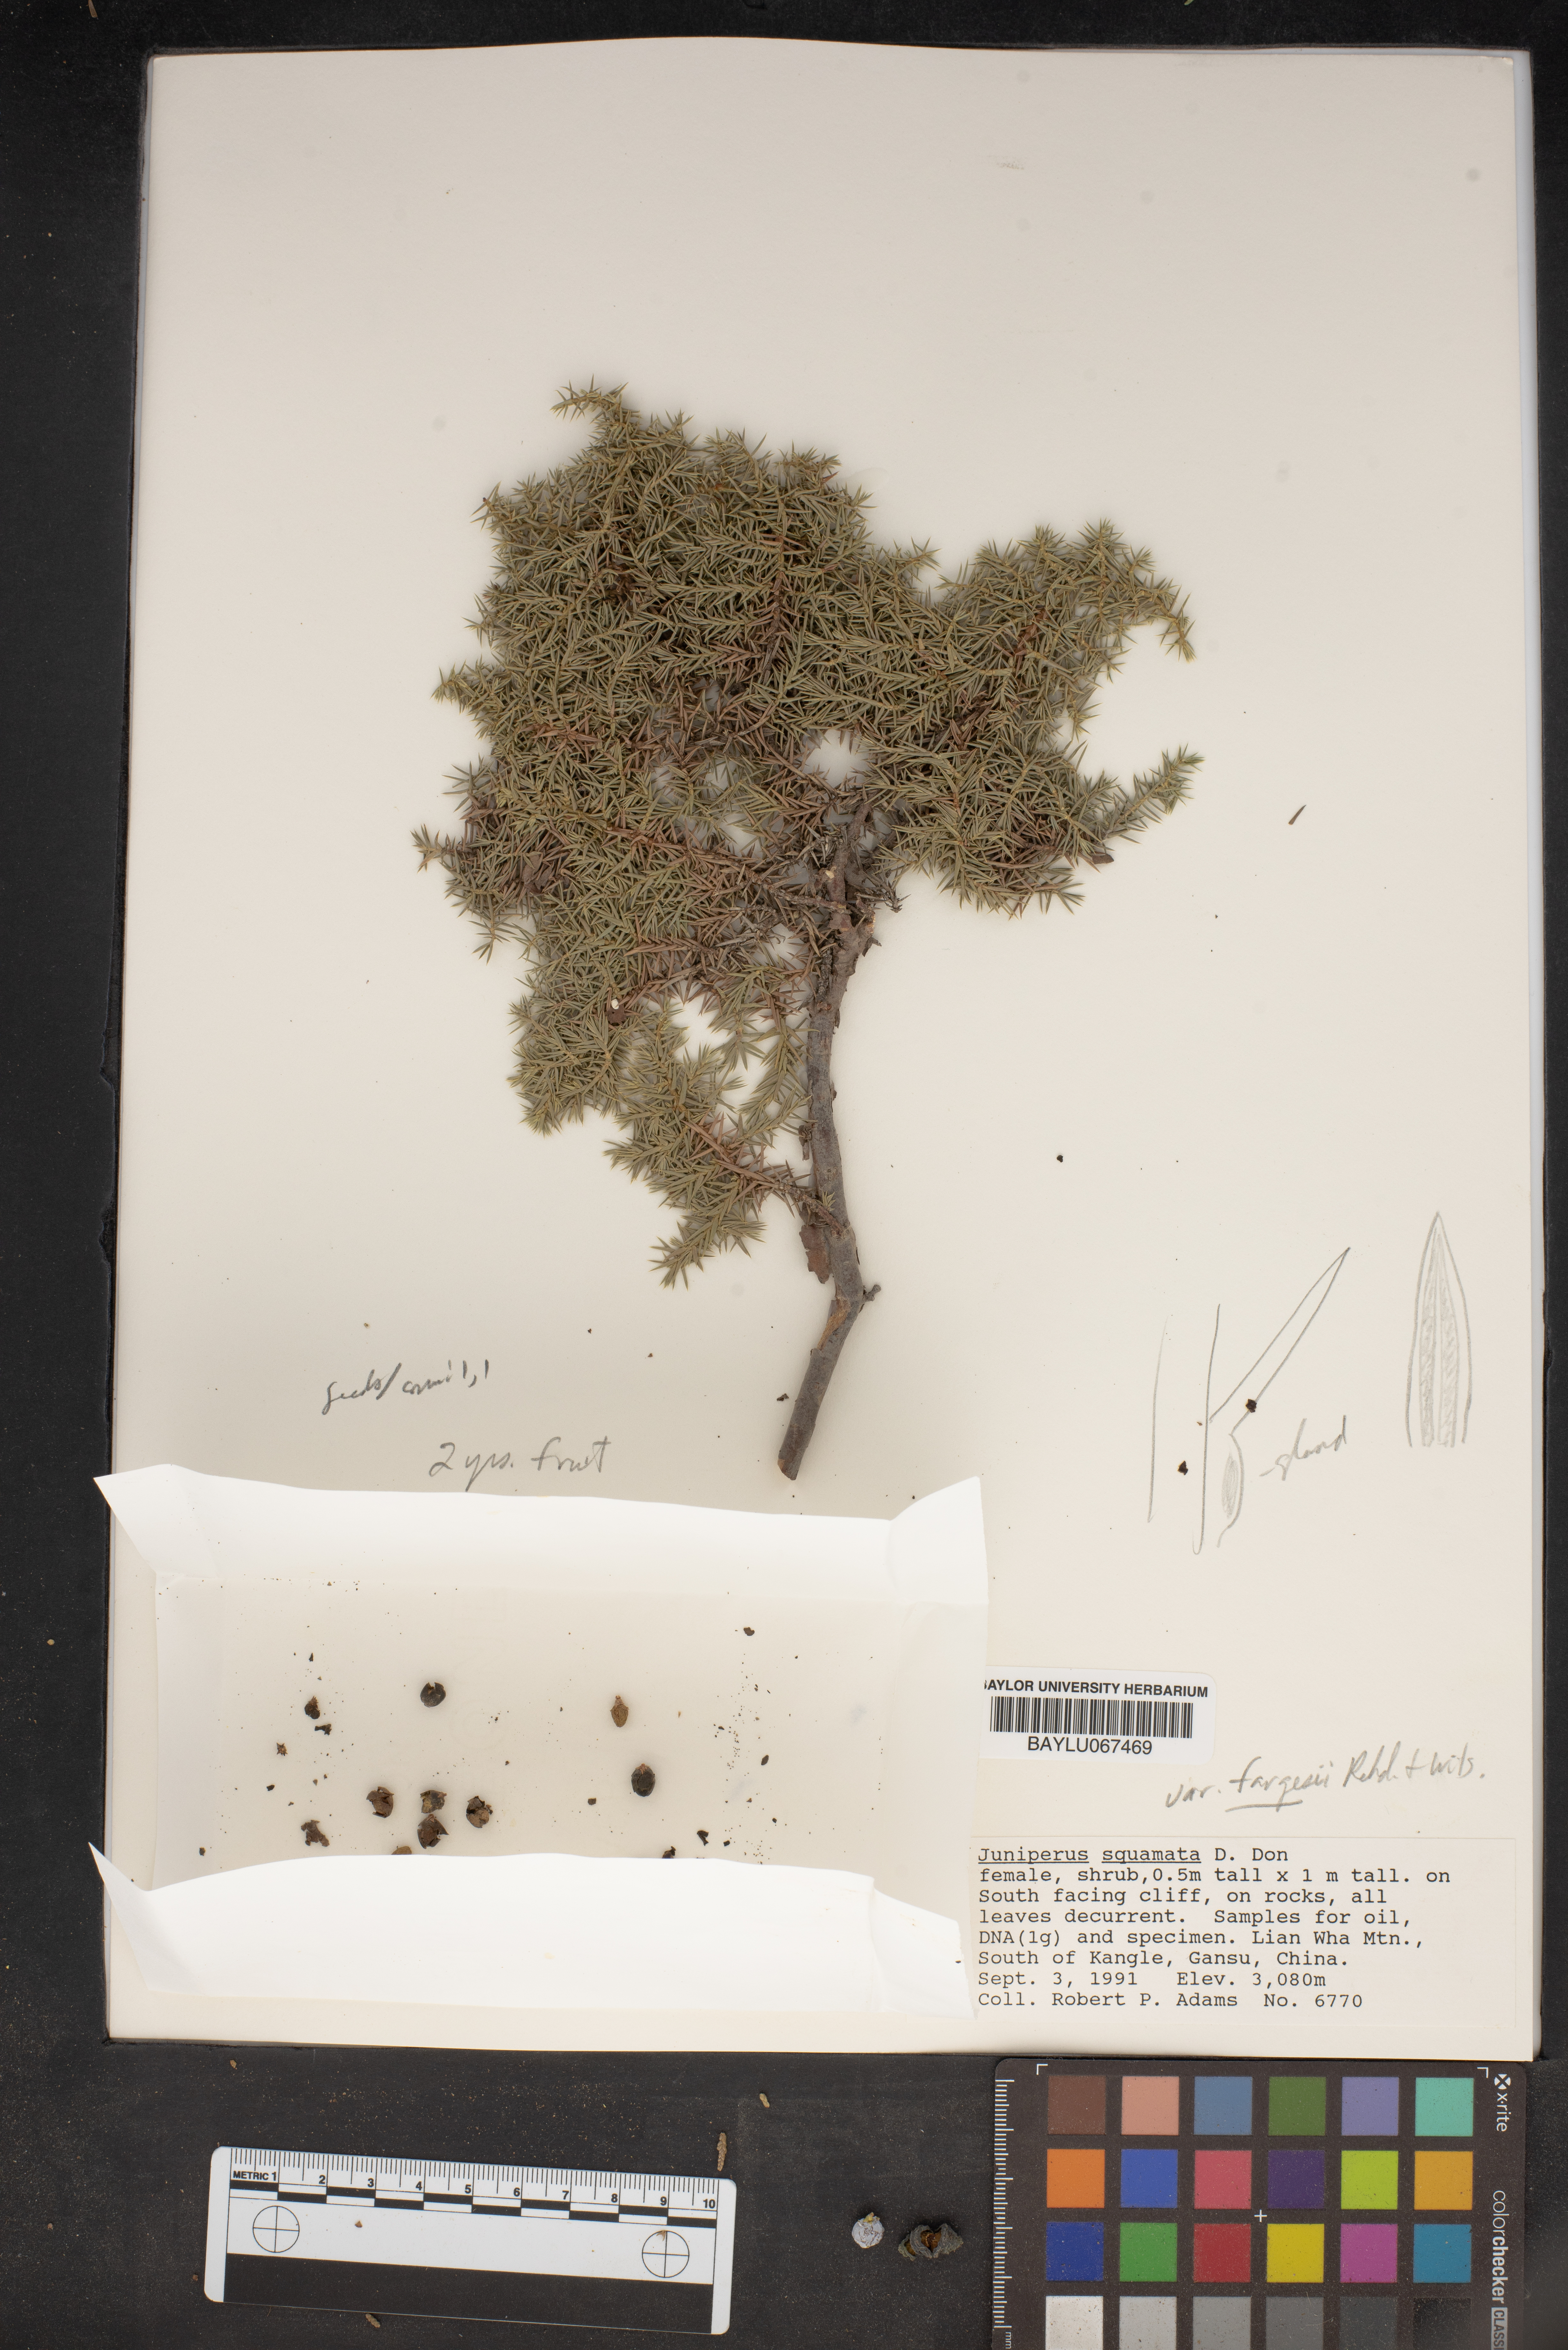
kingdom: Plantae
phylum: Tracheophyta
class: Pinopsida
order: Pinales
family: Cupressaceae
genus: Juniperus
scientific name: Juniperus squamata
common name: Flaky juniper
